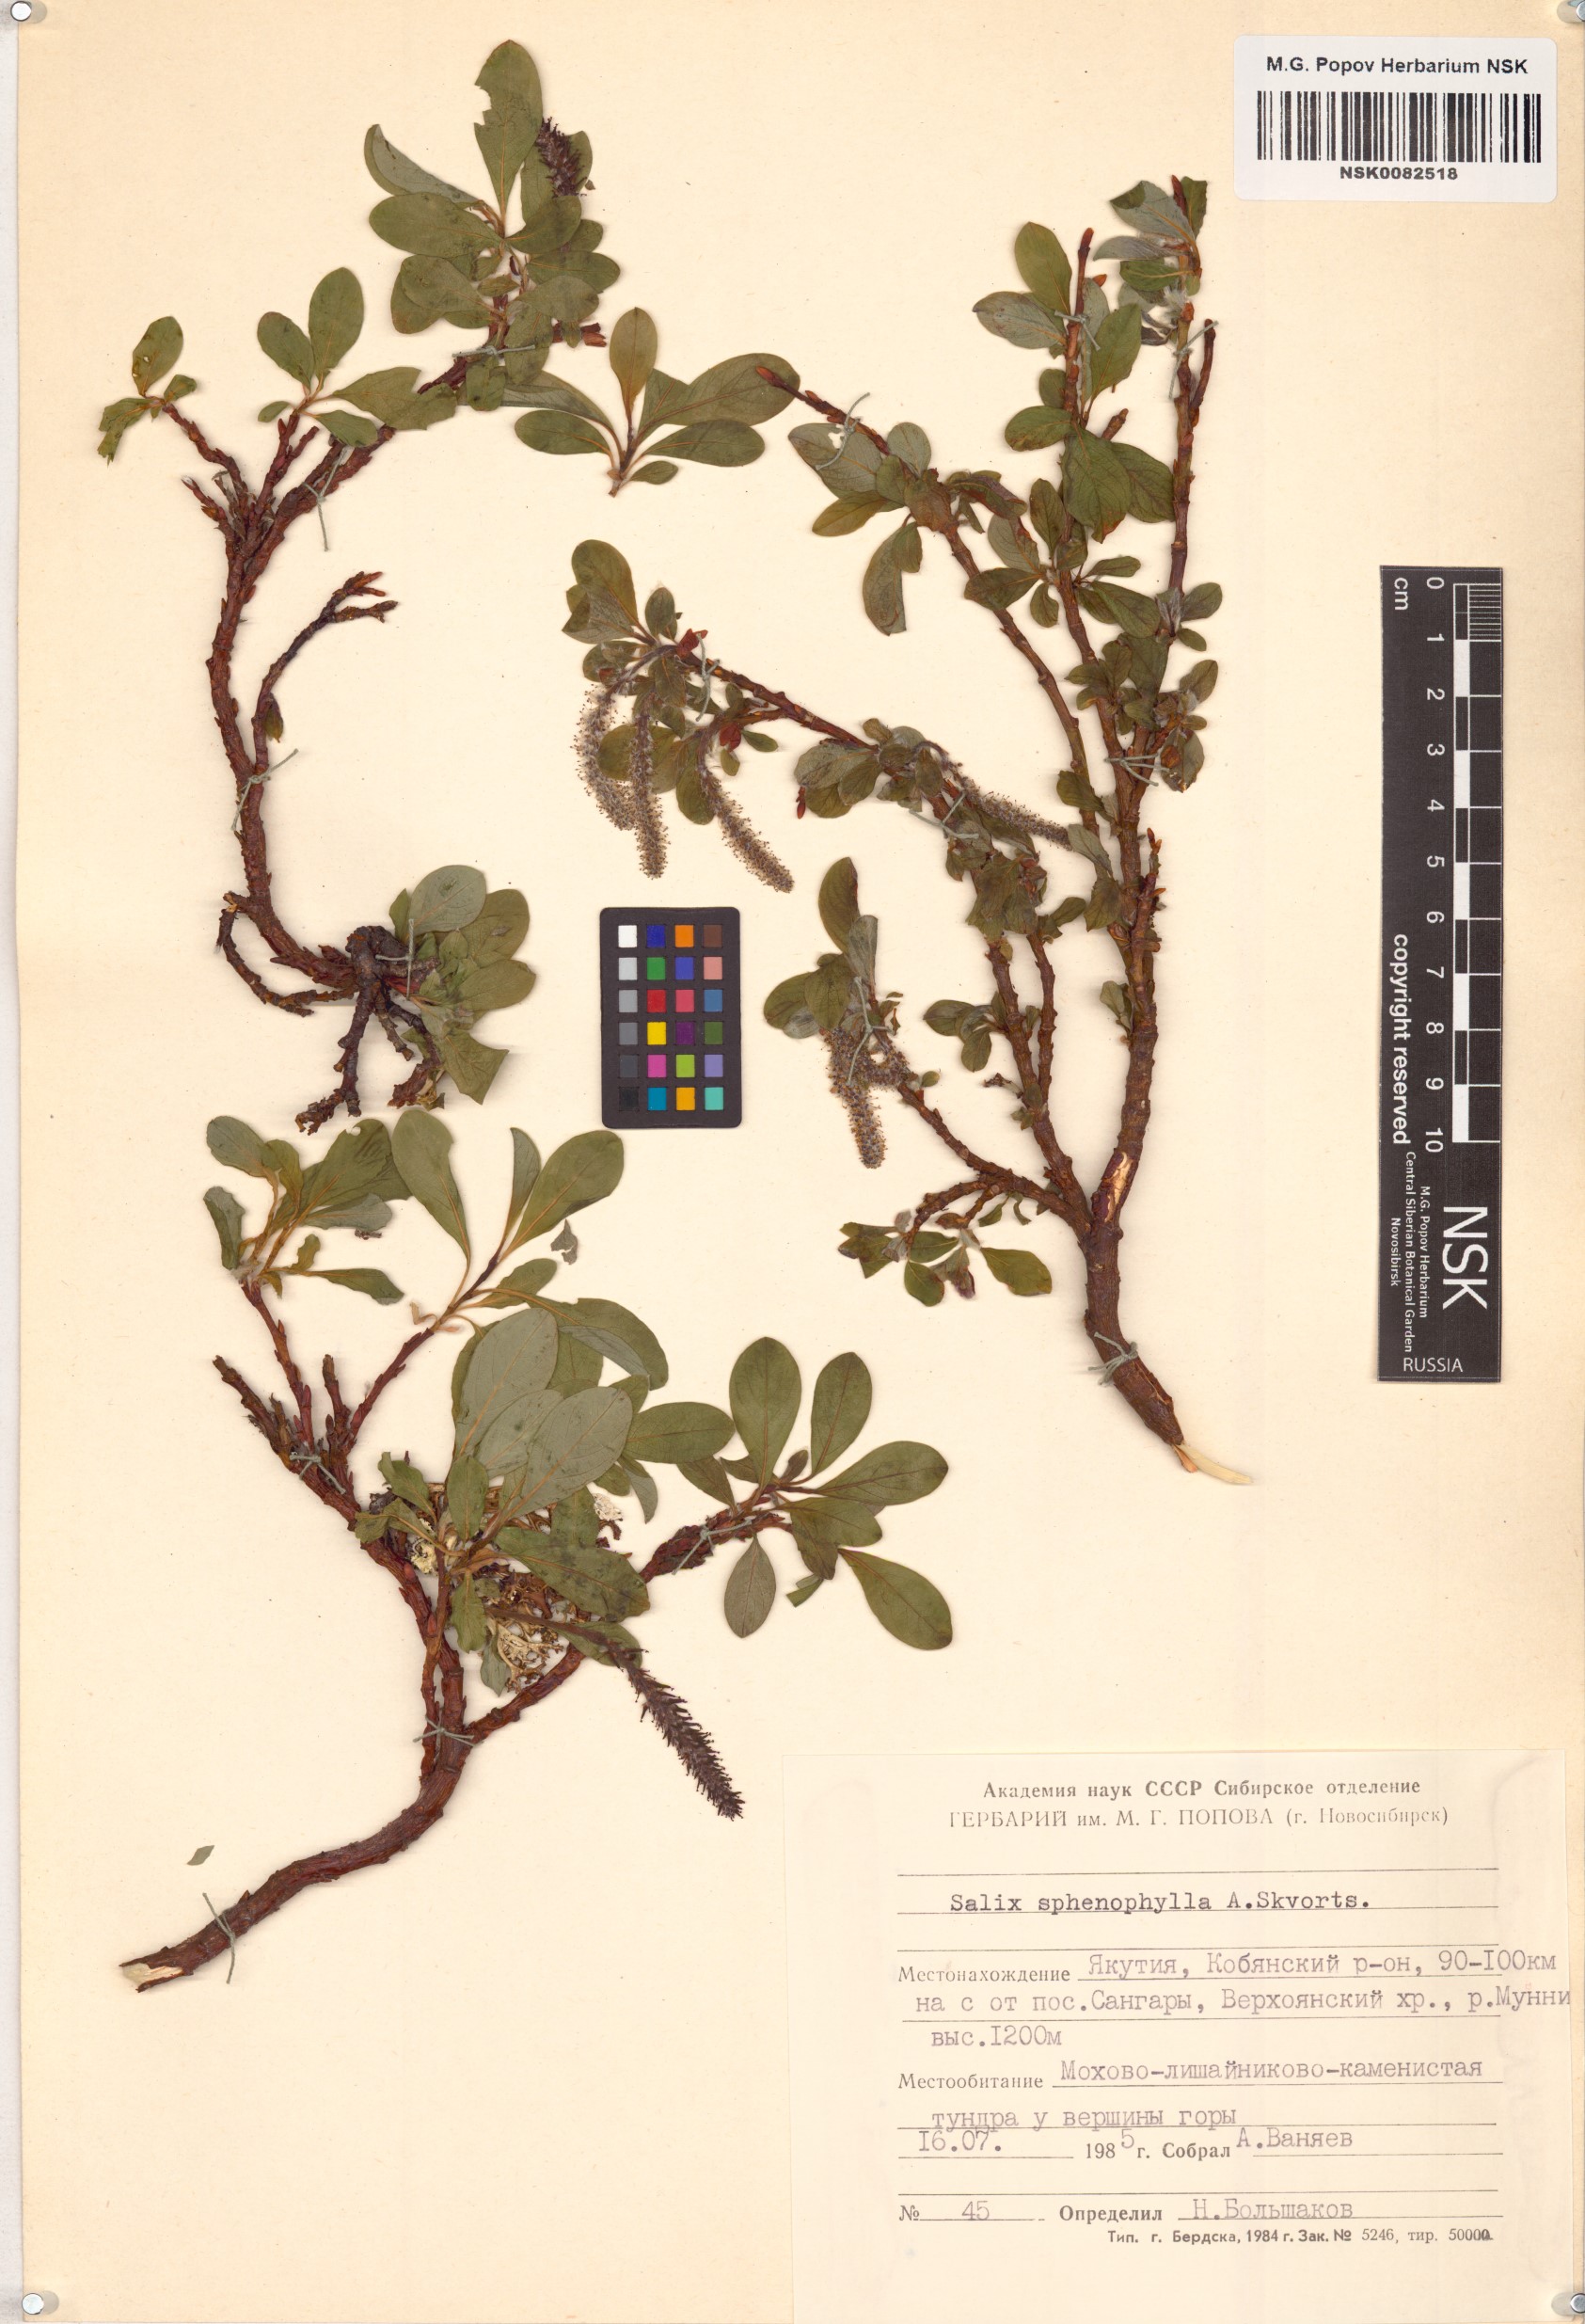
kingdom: Plantae
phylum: Tracheophyta
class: Magnoliopsida
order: Malpighiales
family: Salicaceae
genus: Salix
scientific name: Salix sphenophylla
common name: Wedge-leaved willow
